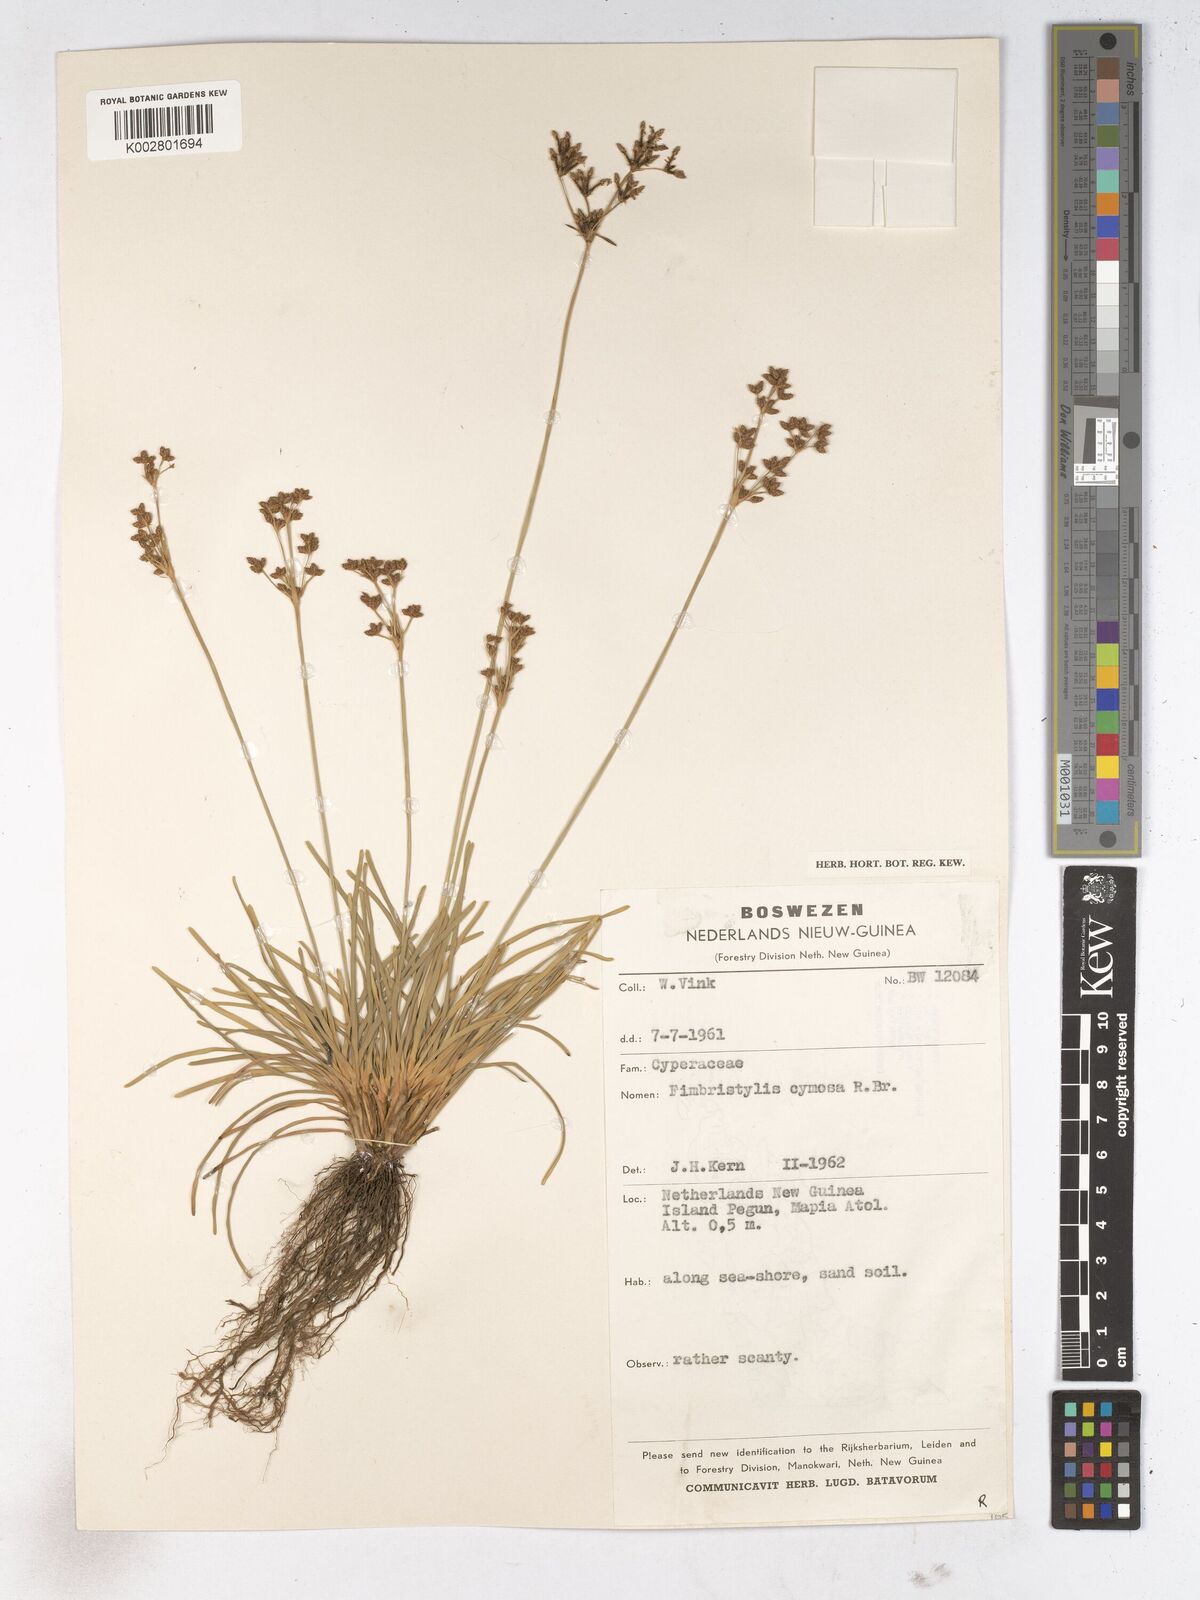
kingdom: Plantae
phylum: Tracheophyta
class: Liliopsida
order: Poales
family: Cyperaceae
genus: Fimbristylis
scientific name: Fimbristylis cymosa
